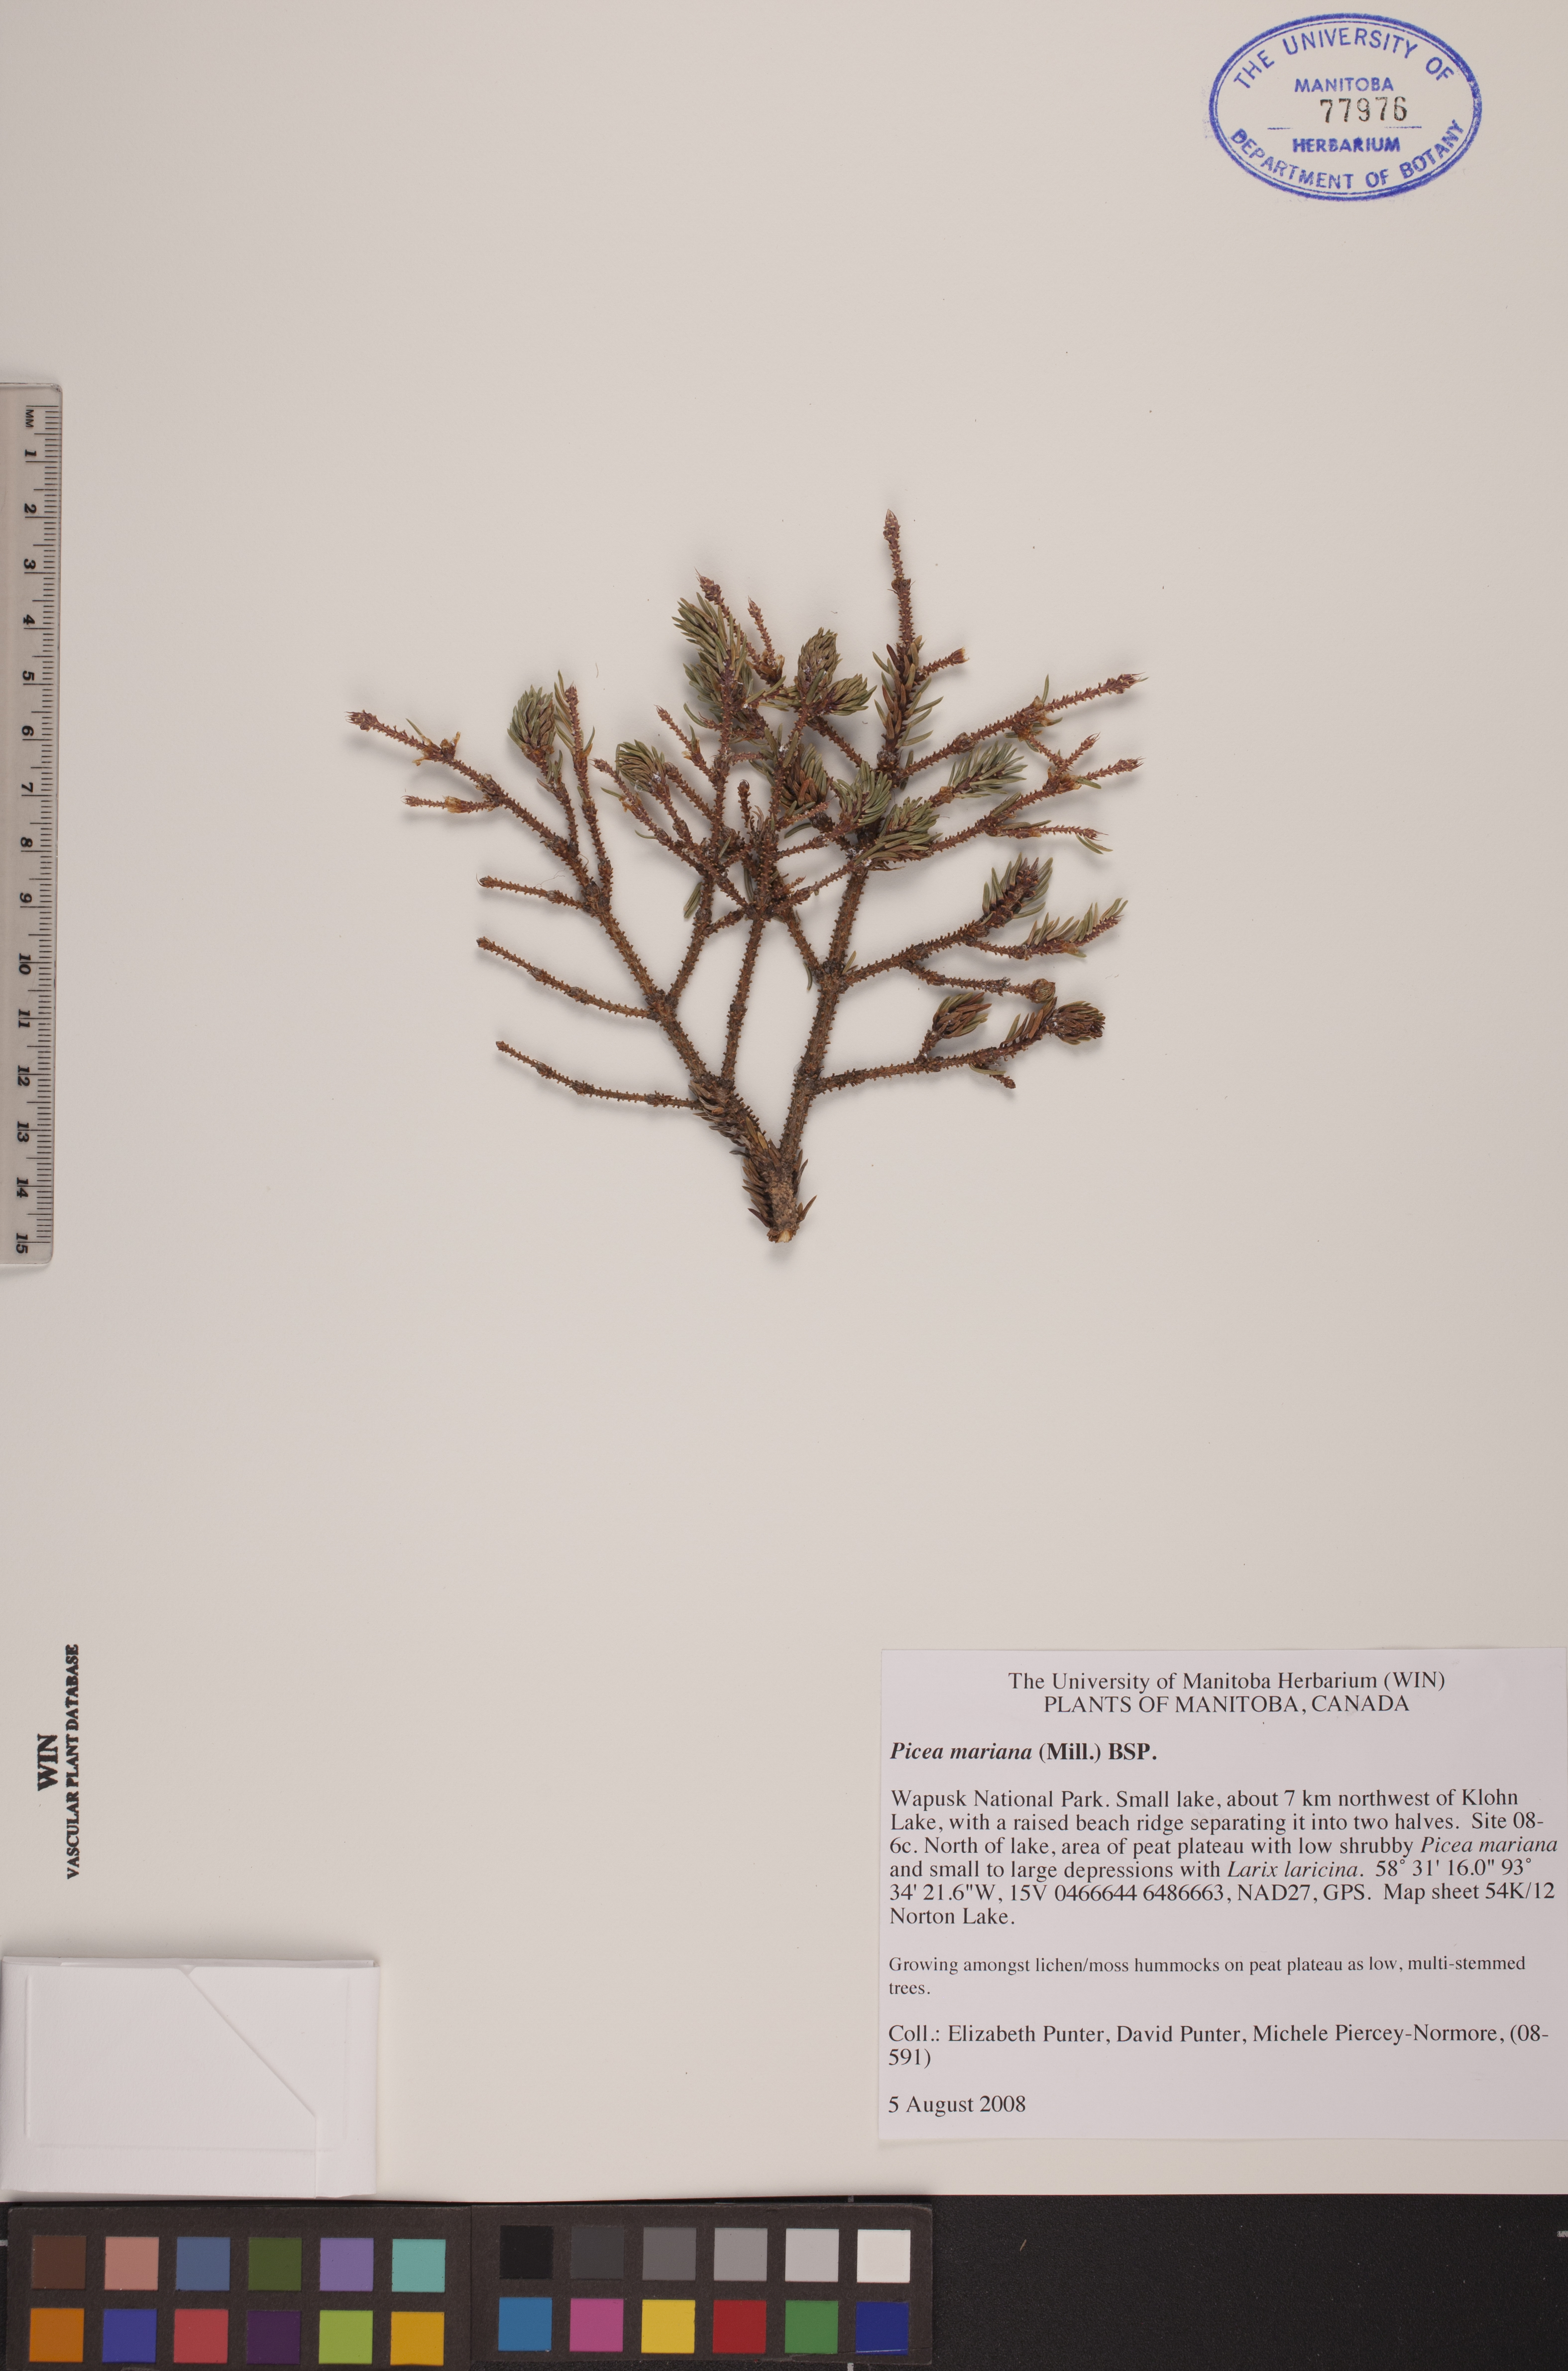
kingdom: Plantae
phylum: Tracheophyta
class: Pinopsida
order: Pinales
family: Pinaceae
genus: Picea
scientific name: Picea mariana
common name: Black spruce
